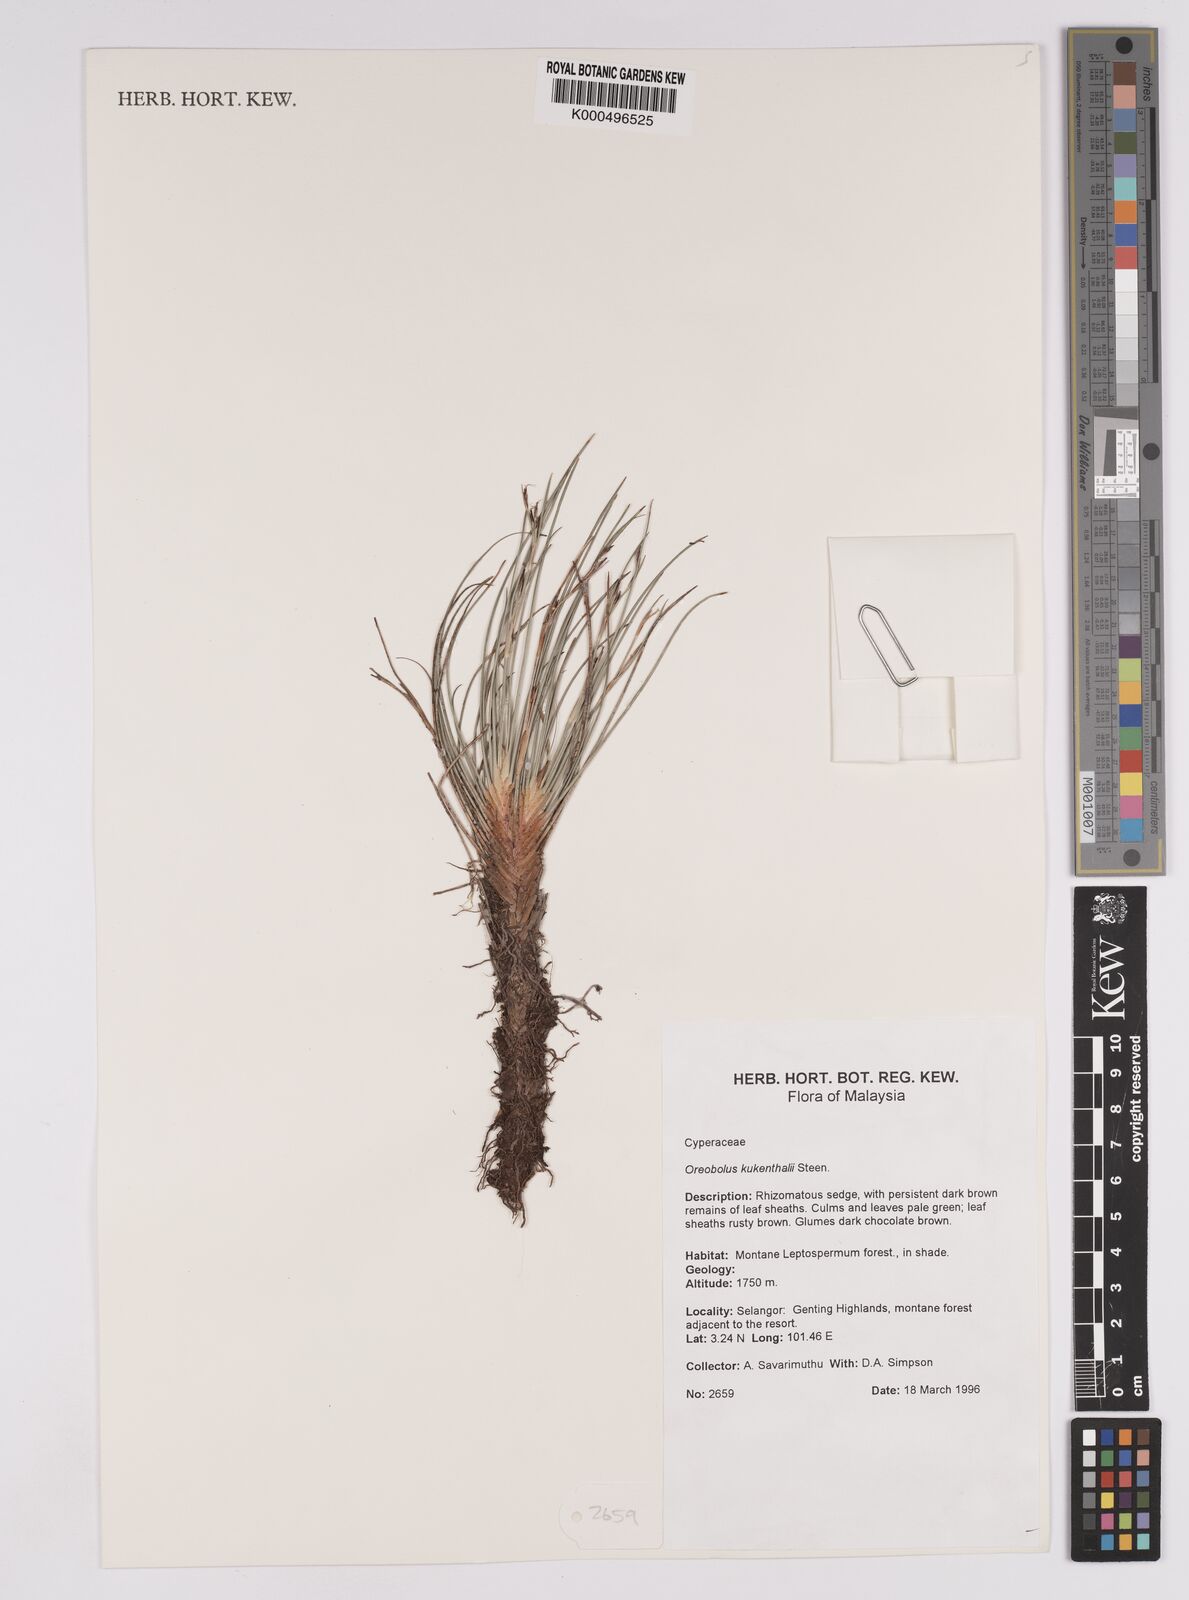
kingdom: Plantae
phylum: Tracheophyta
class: Liliopsida
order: Poales
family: Cyperaceae
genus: Oreobolus
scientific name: Oreobolus
